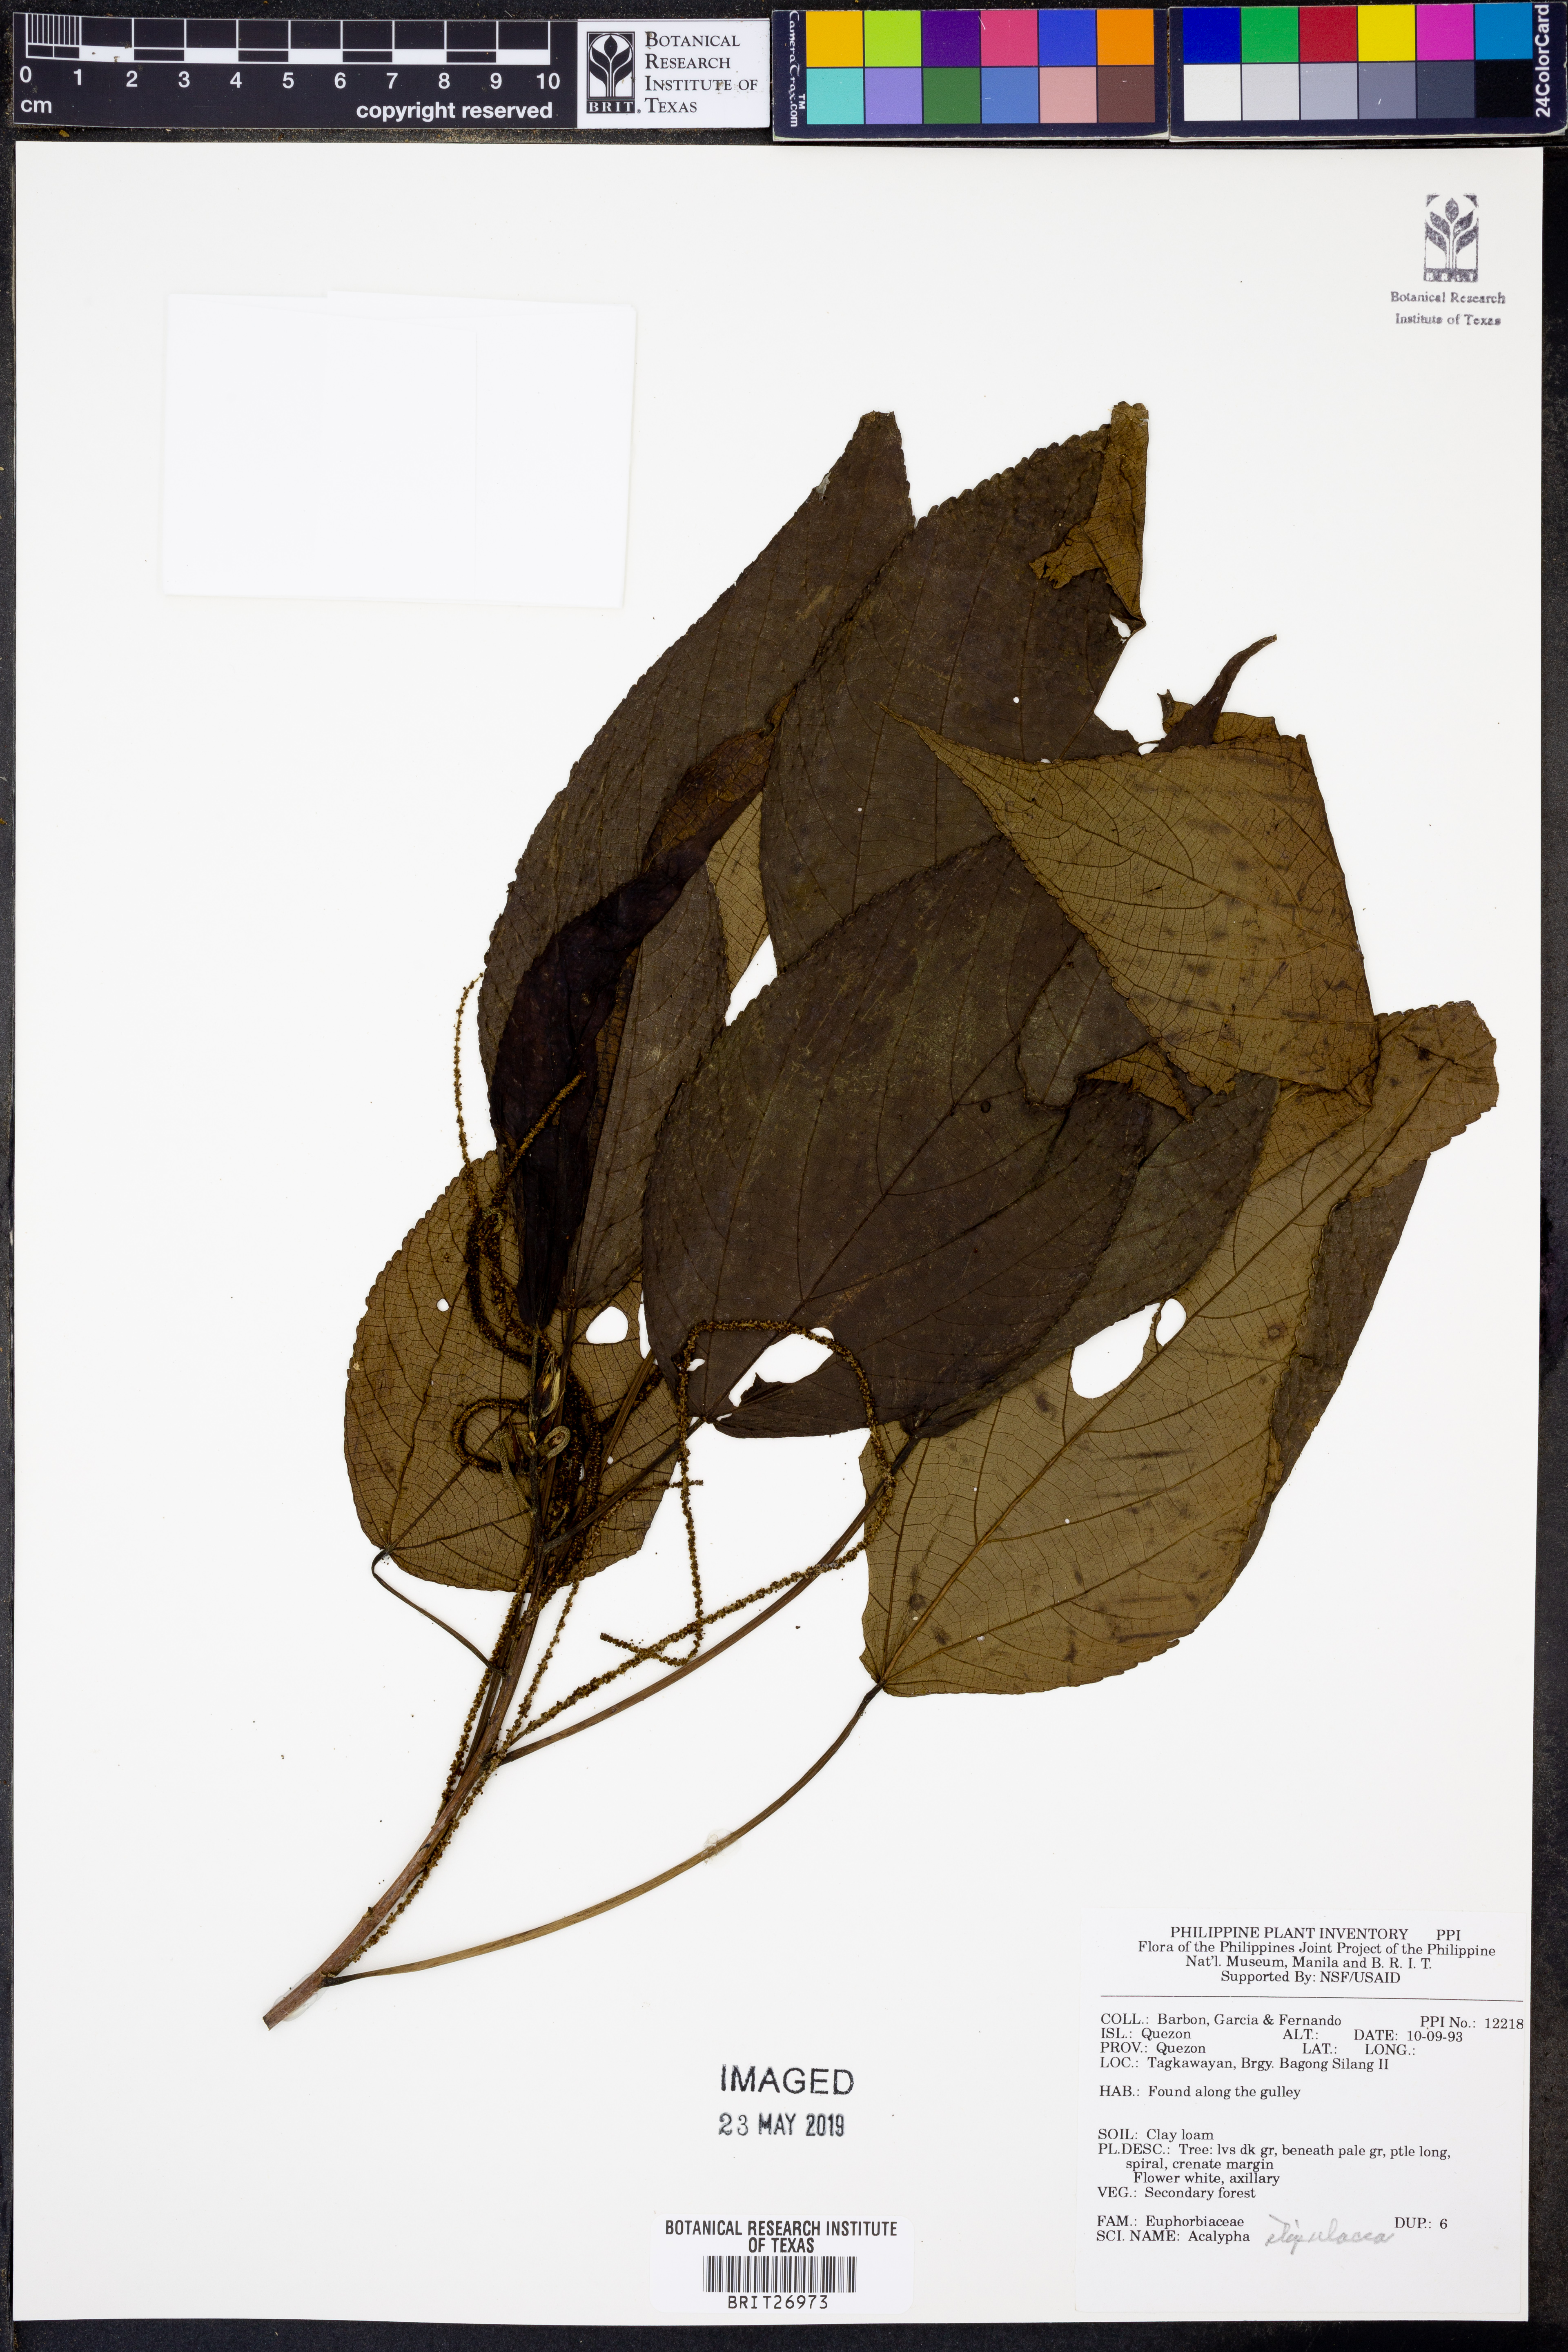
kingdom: Plantae
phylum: Tracheophyta
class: Magnoliopsida
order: Malpighiales
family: Euphorbiaceae
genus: Acalypha
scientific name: Acalypha amentacea
